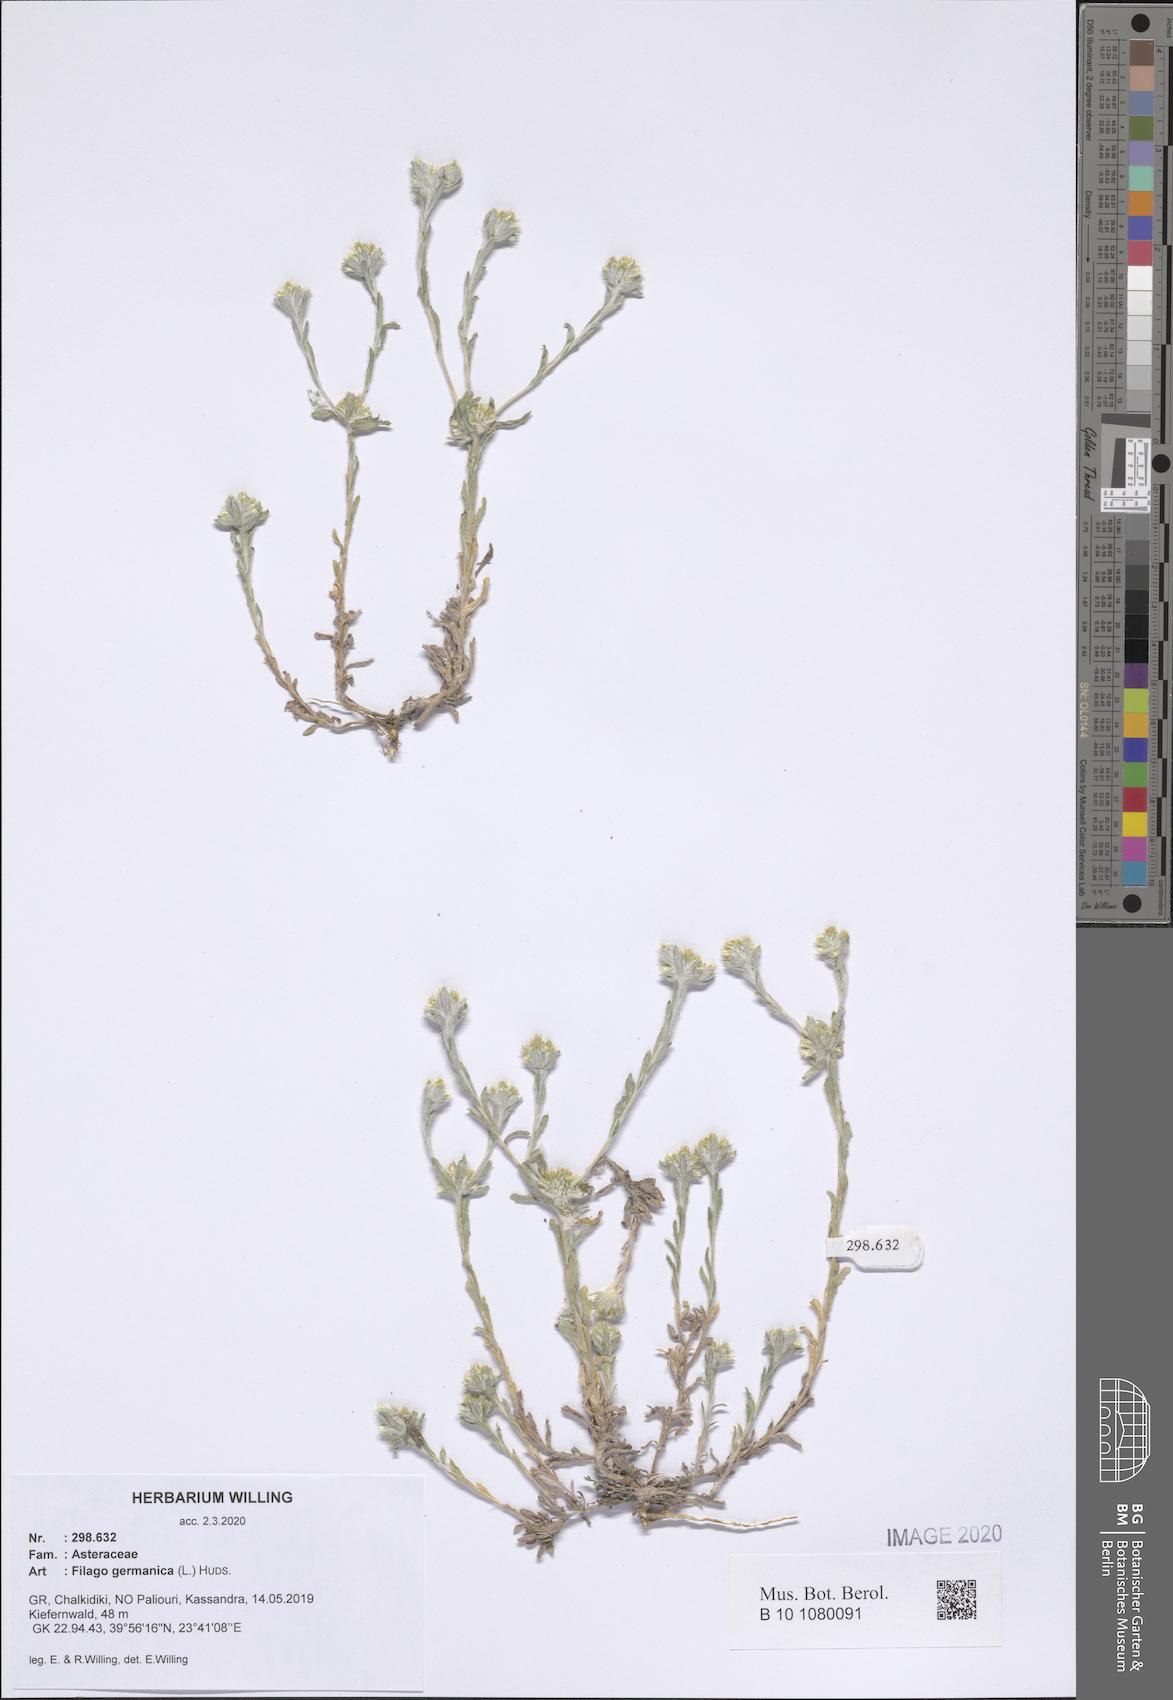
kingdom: Plantae
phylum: Tracheophyta
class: Magnoliopsida
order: Asterales
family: Asteraceae
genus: Filago
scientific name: Filago germanica
